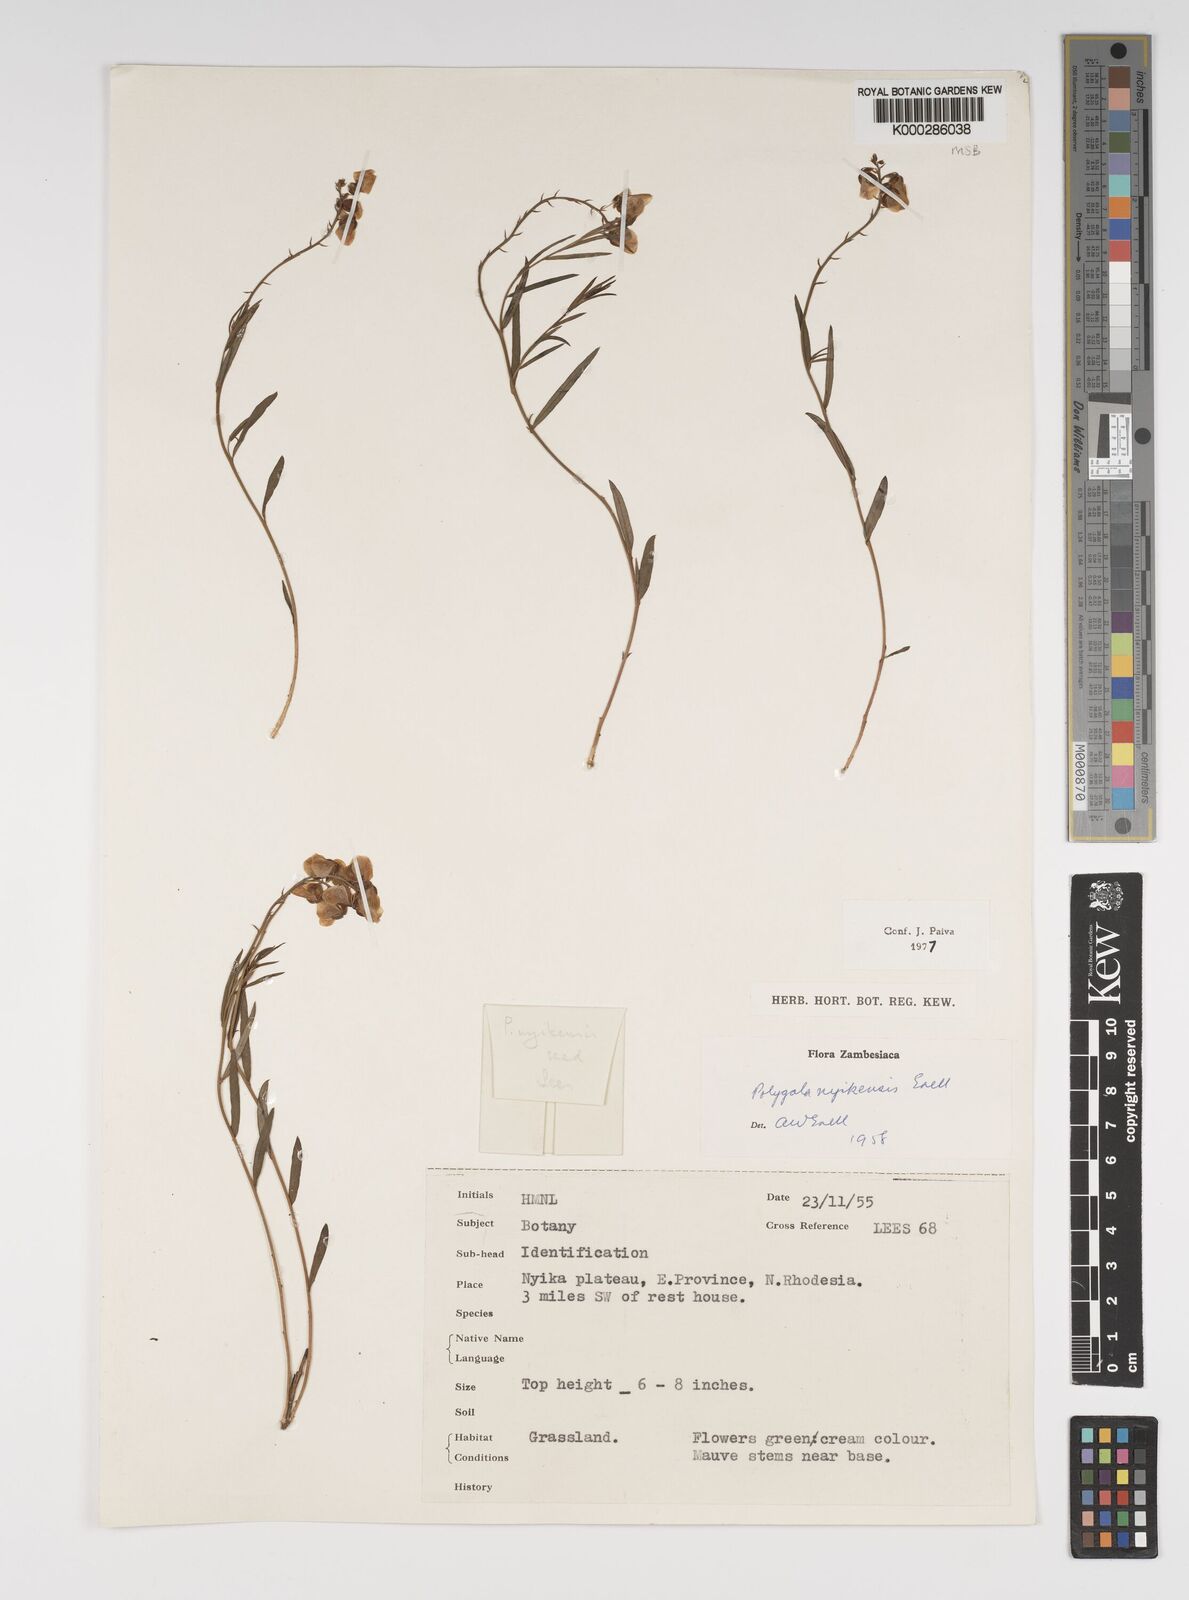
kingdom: Plantae
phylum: Tracheophyta
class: Magnoliopsida
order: Fabales
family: Polygalaceae
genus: Polygala
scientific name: Polygala nyikensis
